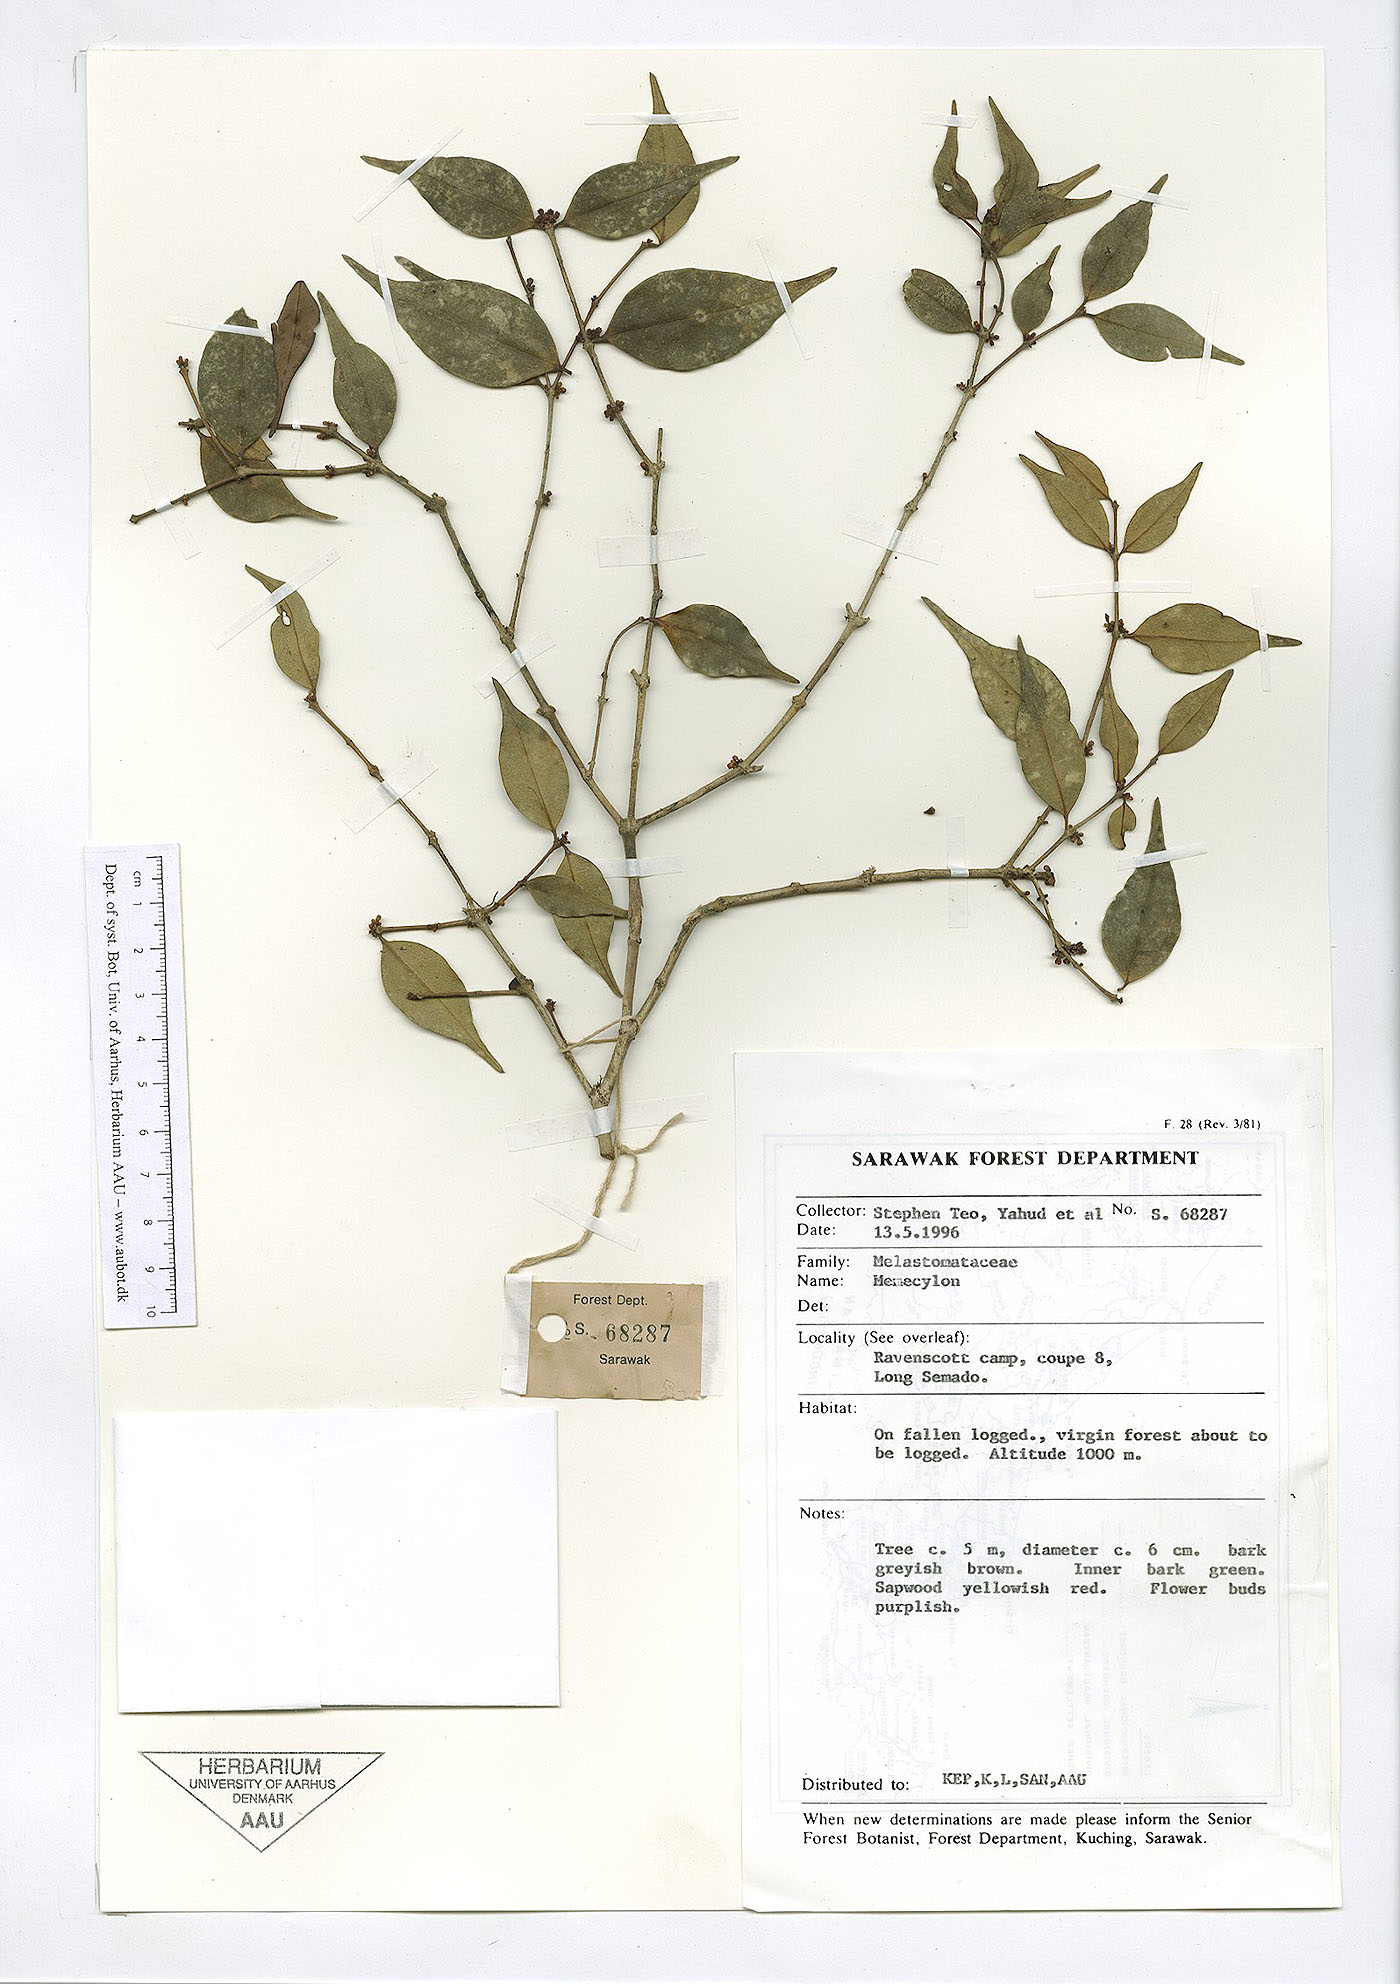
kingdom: Plantae
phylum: Tracheophyta
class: Magnoliopsida
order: Myrtales
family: Melastomataceae
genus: Memecylon
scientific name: Memecylon
